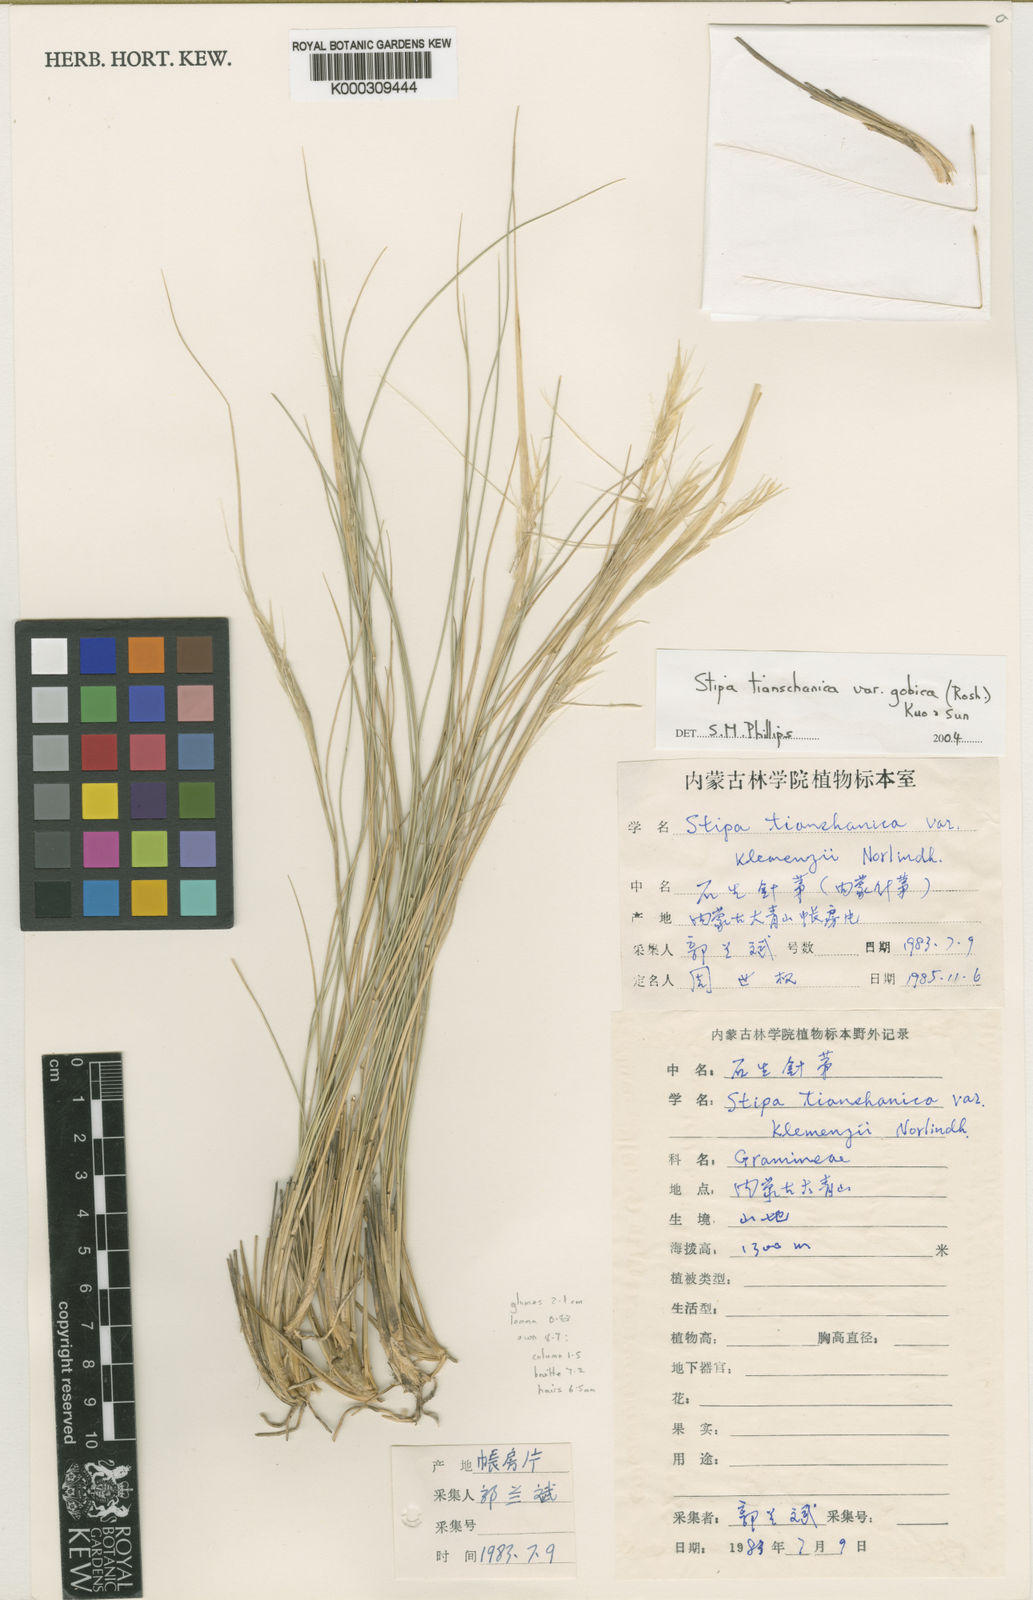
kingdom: Plantae
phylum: Tracheophyta
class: Liliopsida
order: Poales
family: Poaceae
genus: Stipa
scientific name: Stipa tianschanica
